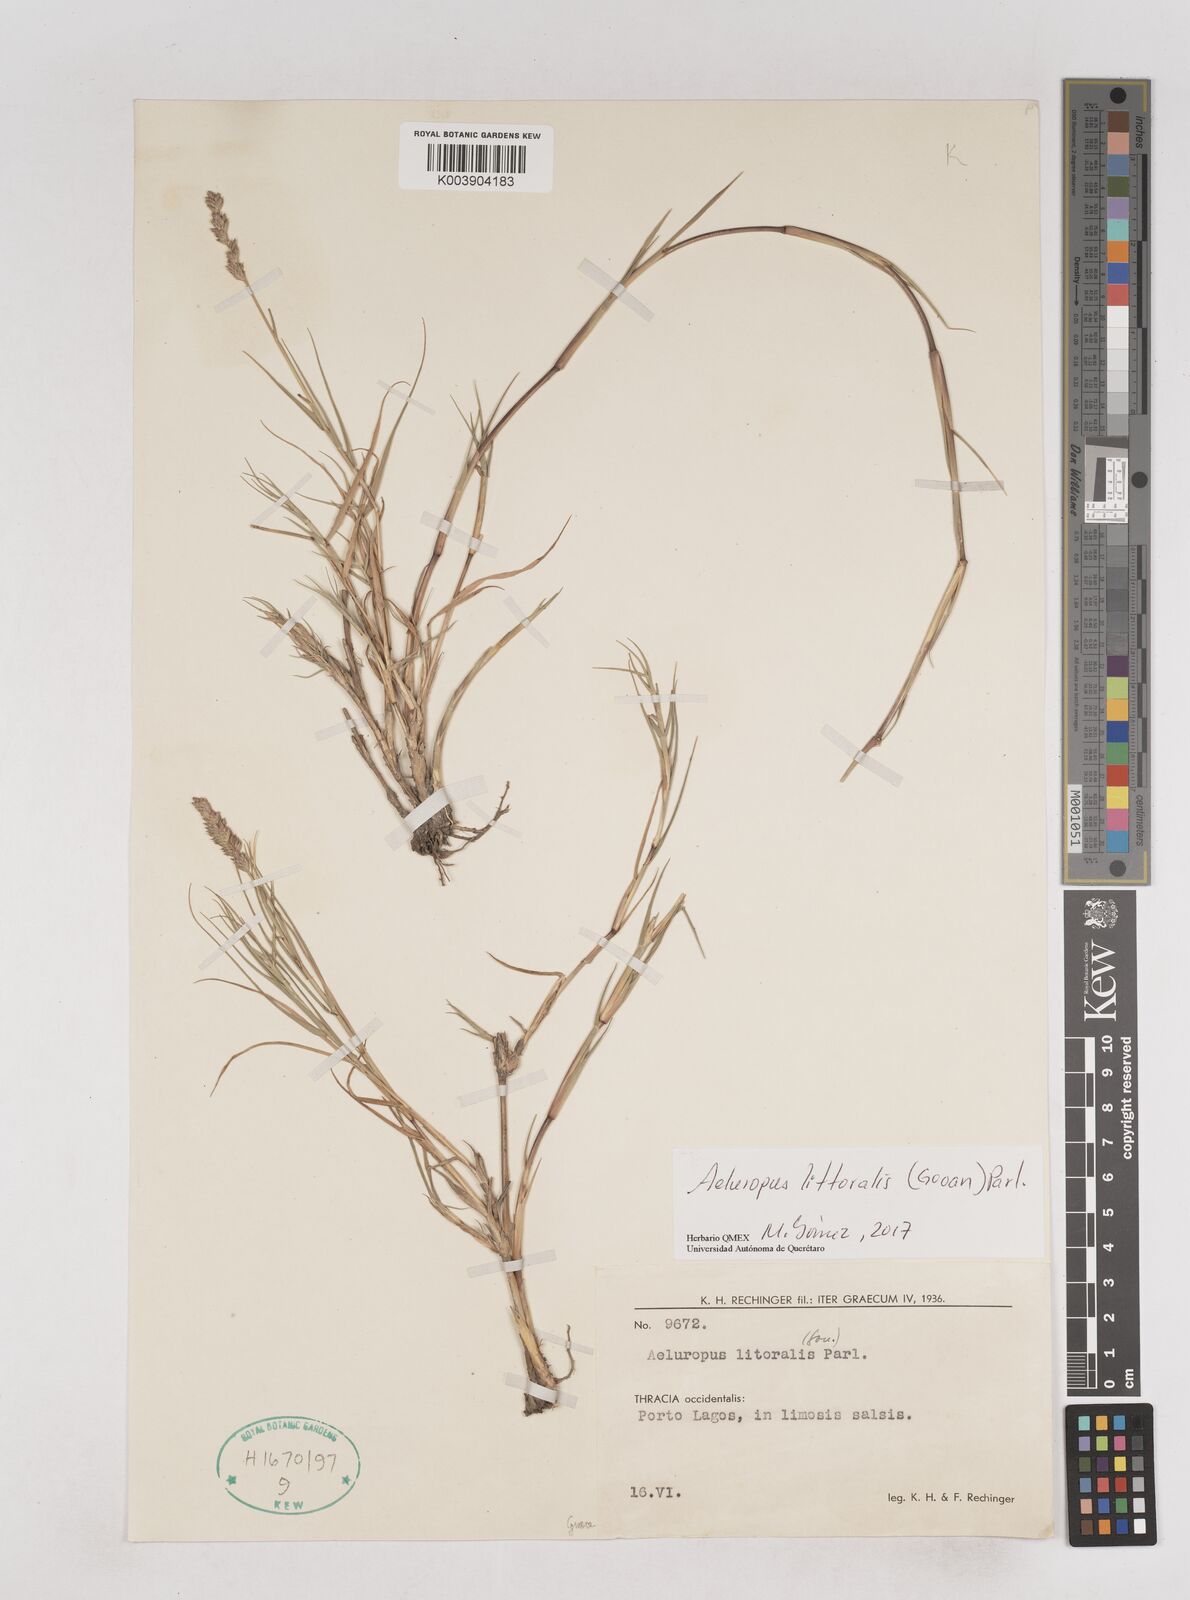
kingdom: Plantae
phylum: Tracheophyta
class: Liliopsida
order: Poales
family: Poaceae
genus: Aeluropus
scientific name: Aeluropus littoralis
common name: Indian walnut
